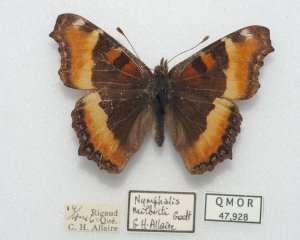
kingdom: Animalia
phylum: Arthropoda
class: Insecta
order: Lepidoptera
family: Nymphalidae
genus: Aglais
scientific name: Aglais milberti
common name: Milbert's Tortoiseshell
